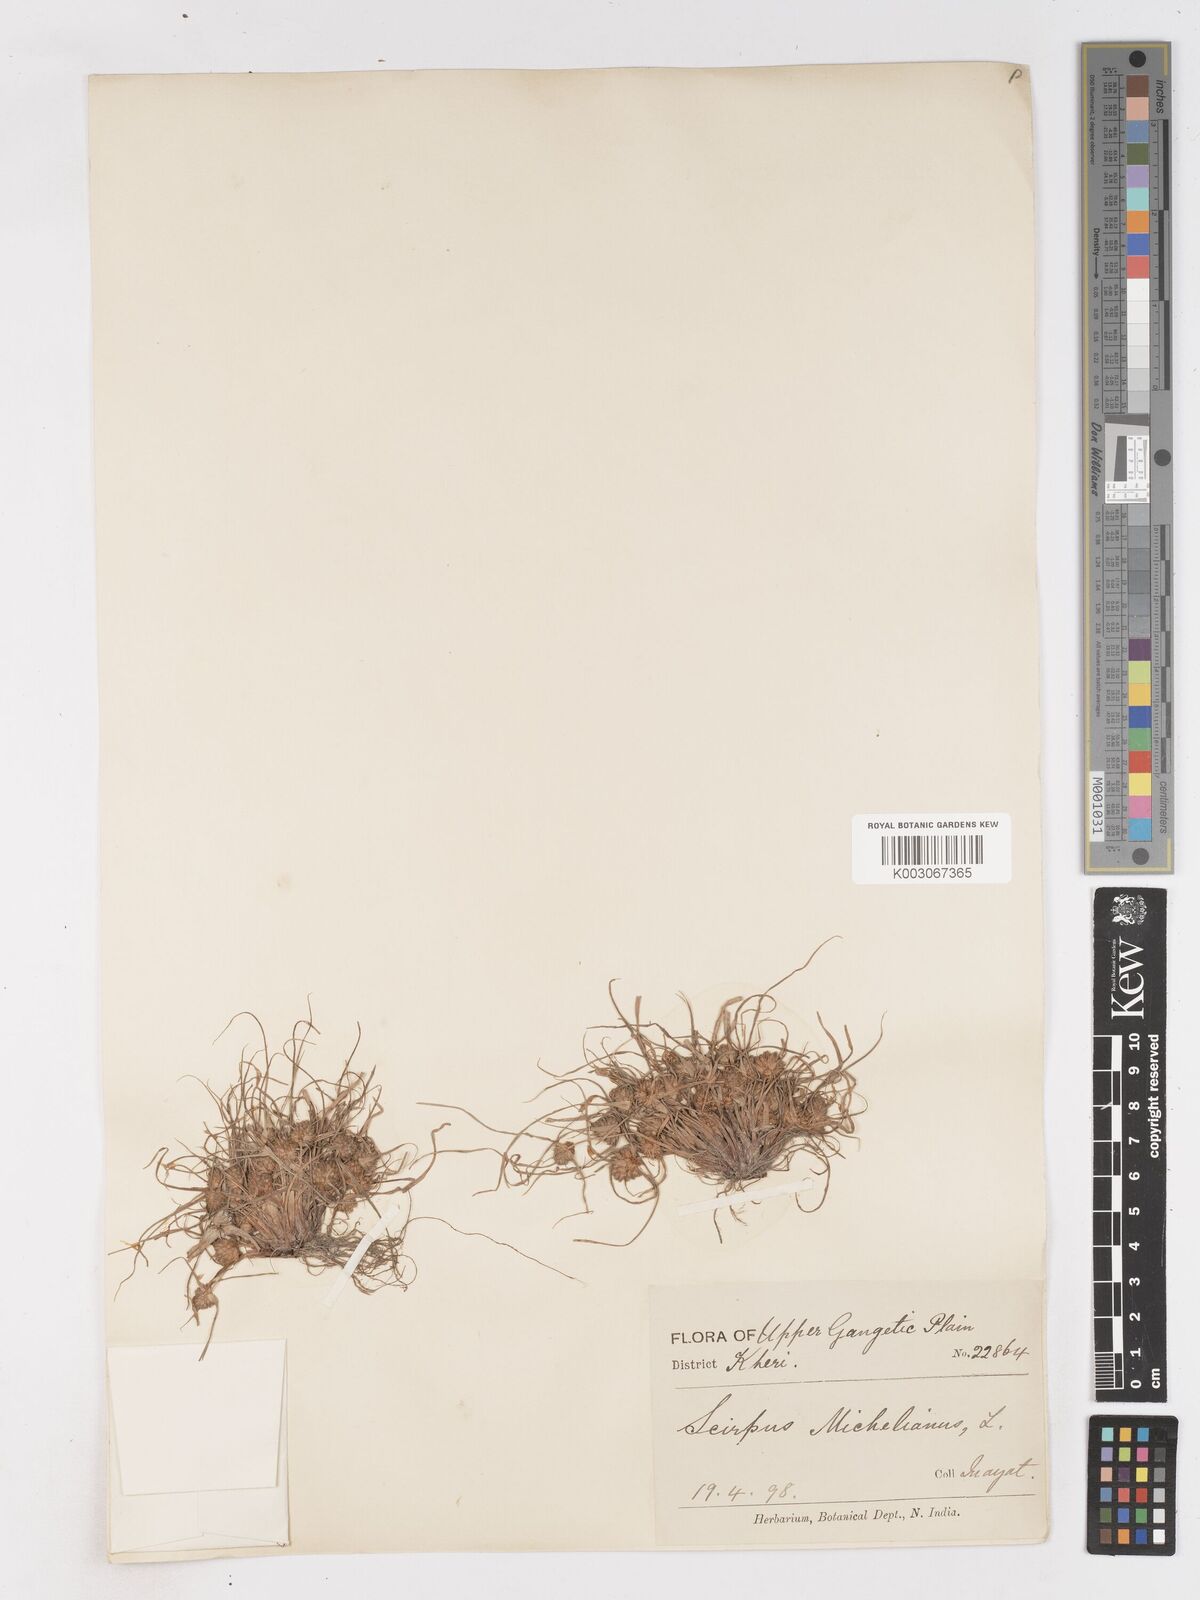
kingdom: Plantae
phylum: Tracheophyta
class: Liliopsida
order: Poales
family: Cyperaceae
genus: Cyperus
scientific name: Cyperus michelianus
